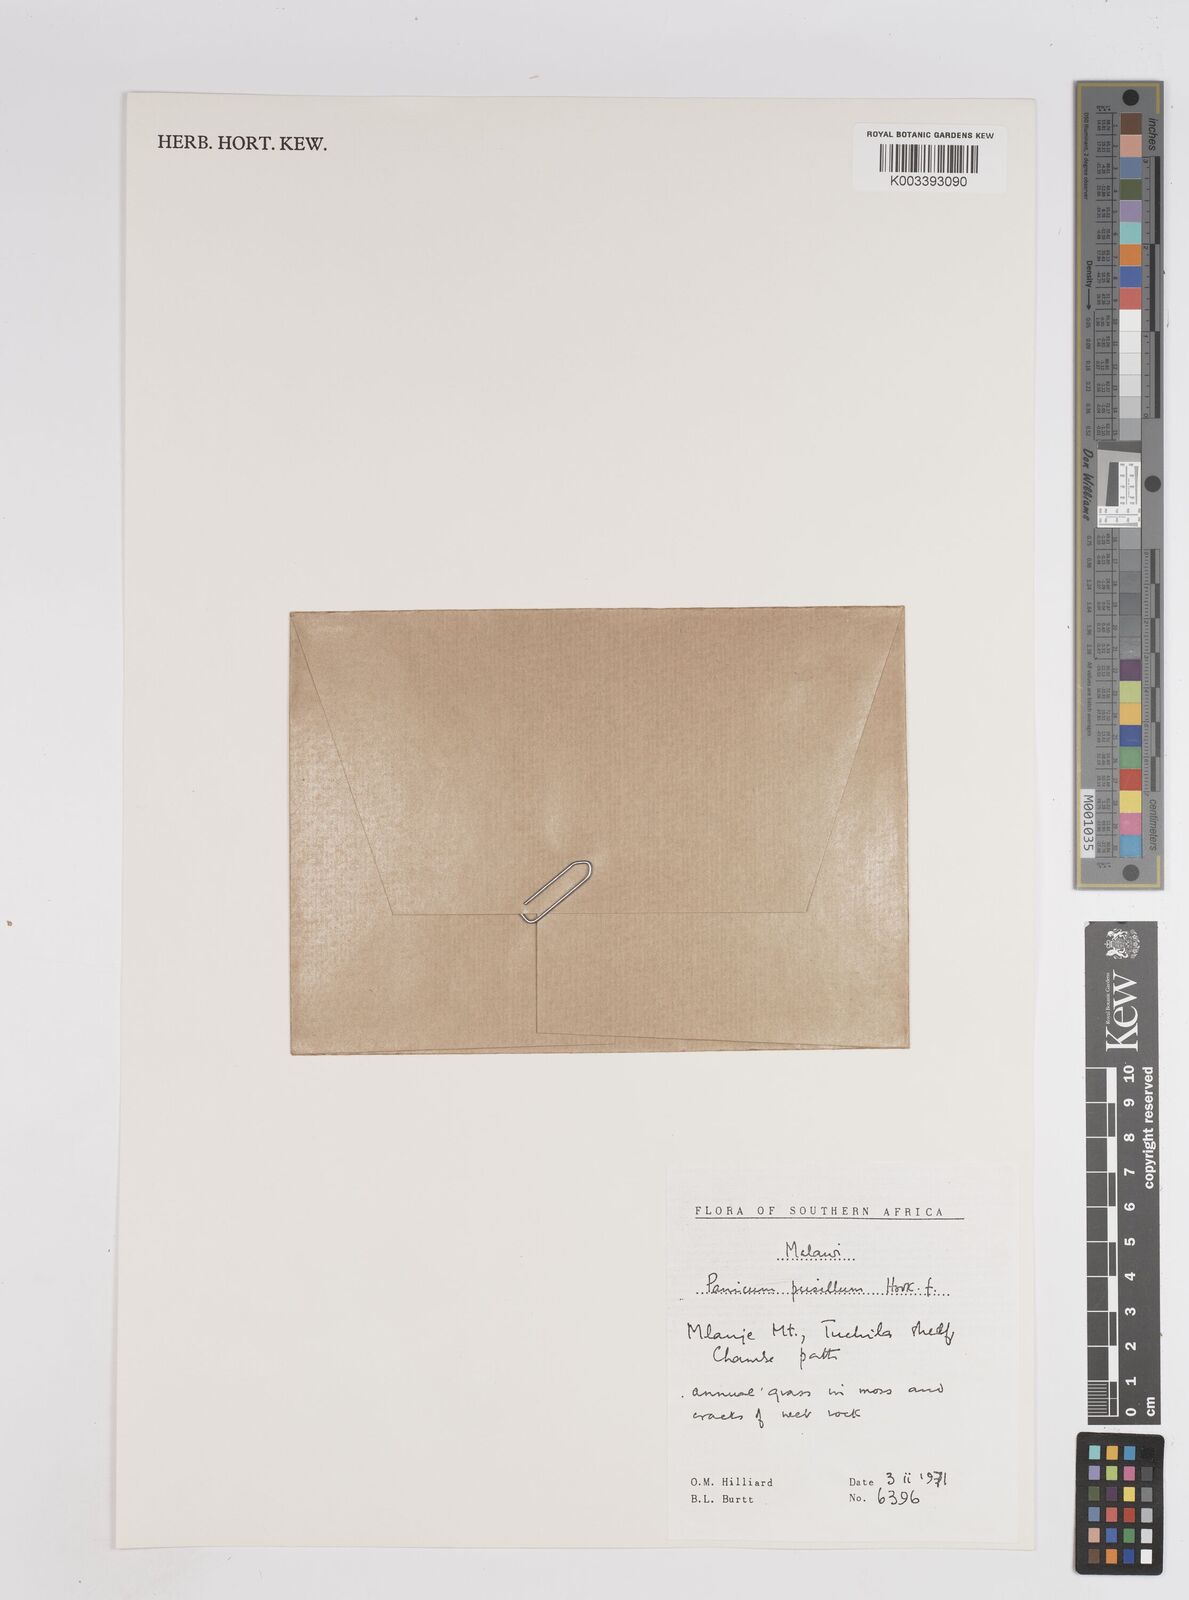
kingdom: Plantae
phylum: Tracheophyta
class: Liliopsida
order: Poales
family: Poaceae
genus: Panicum
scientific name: Panicum pusillum
